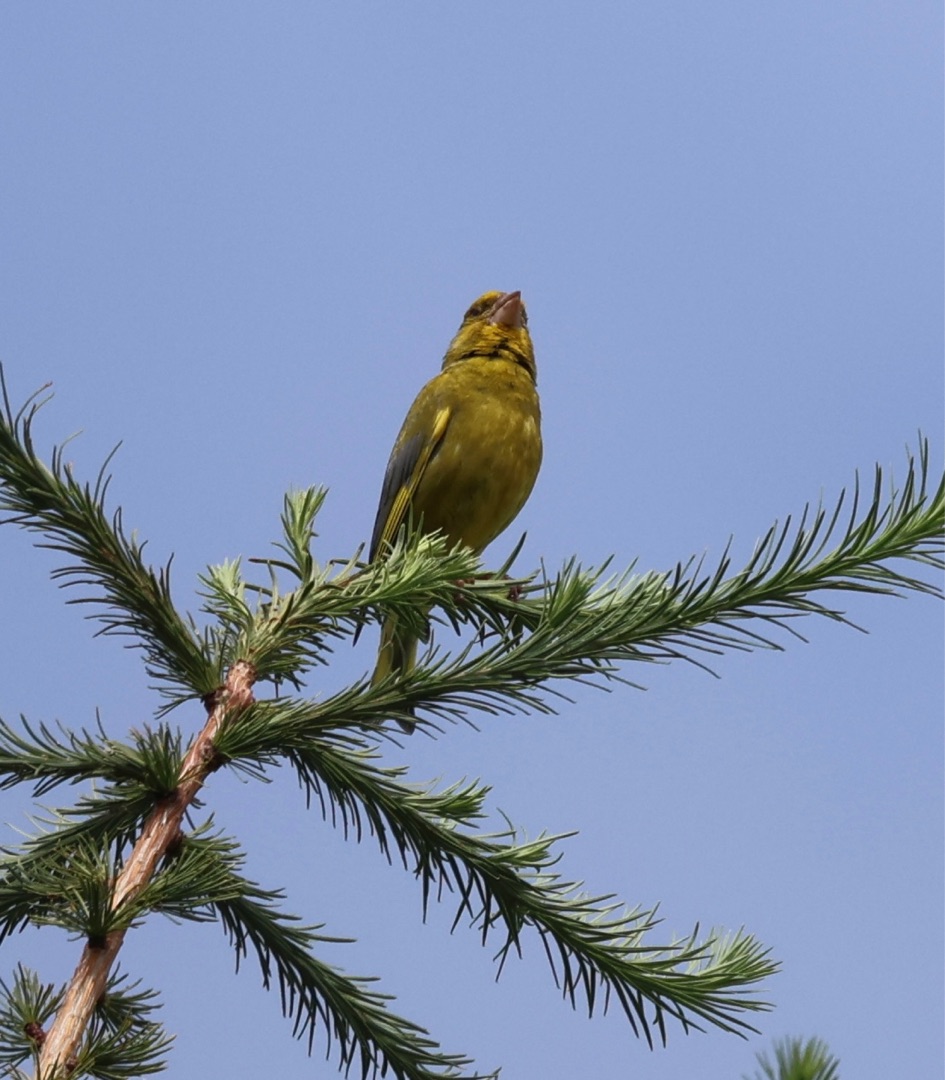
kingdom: Plantae
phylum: Tracheophyta
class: Liliopsida
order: Poales
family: Poaceae
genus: Chloris
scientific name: Chloris chloris
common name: Grønirisk
